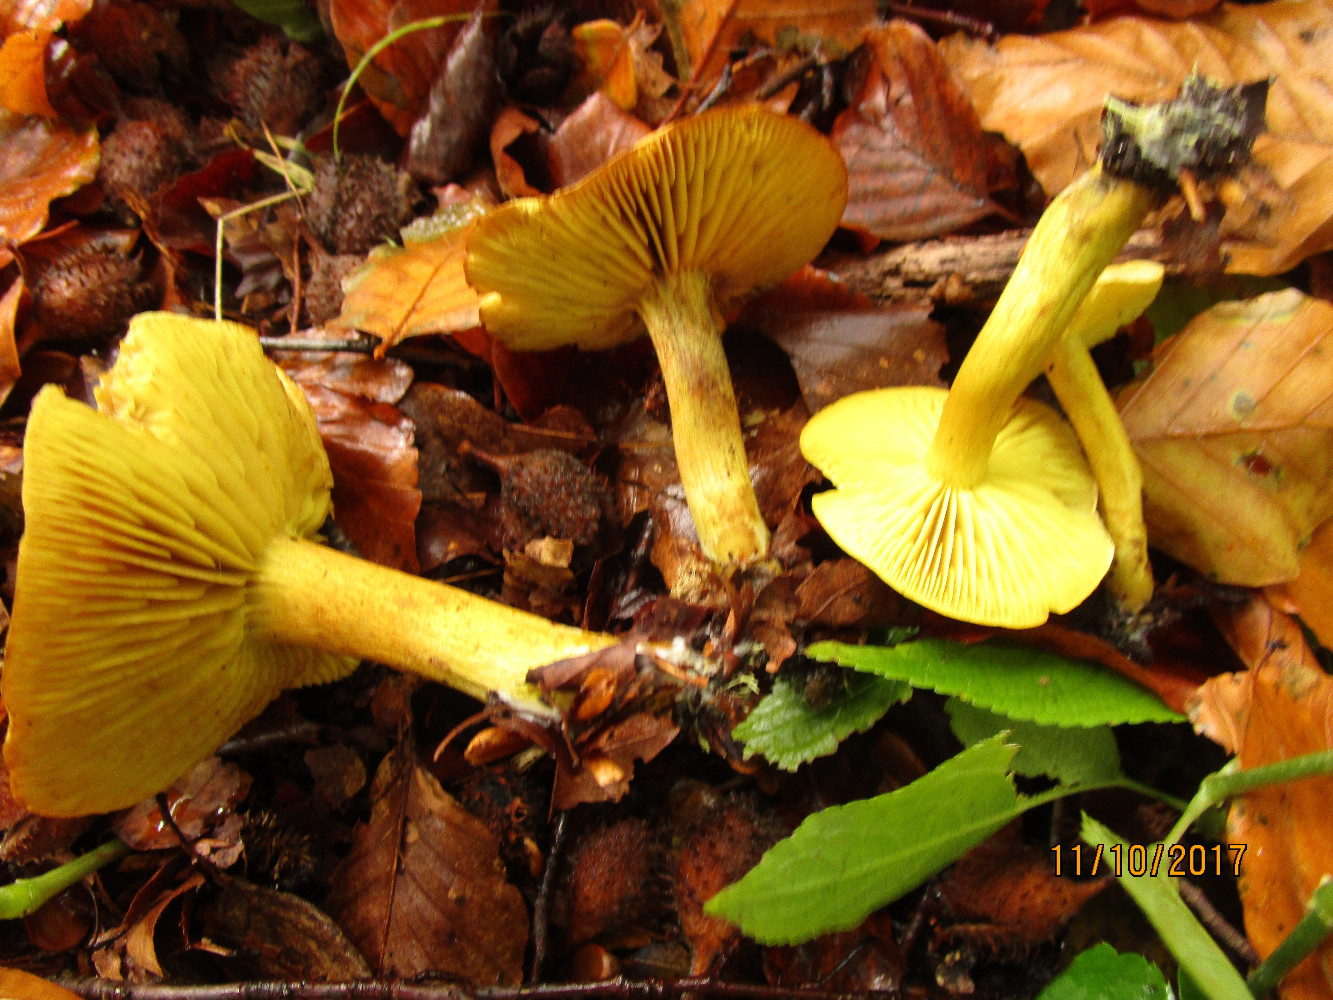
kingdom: Fungi
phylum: Basidiomycota
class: Agaricomycetes
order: Agaricales
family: Tricholomataceae
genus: Tricholoma
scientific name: Tricholoma sulphureum
